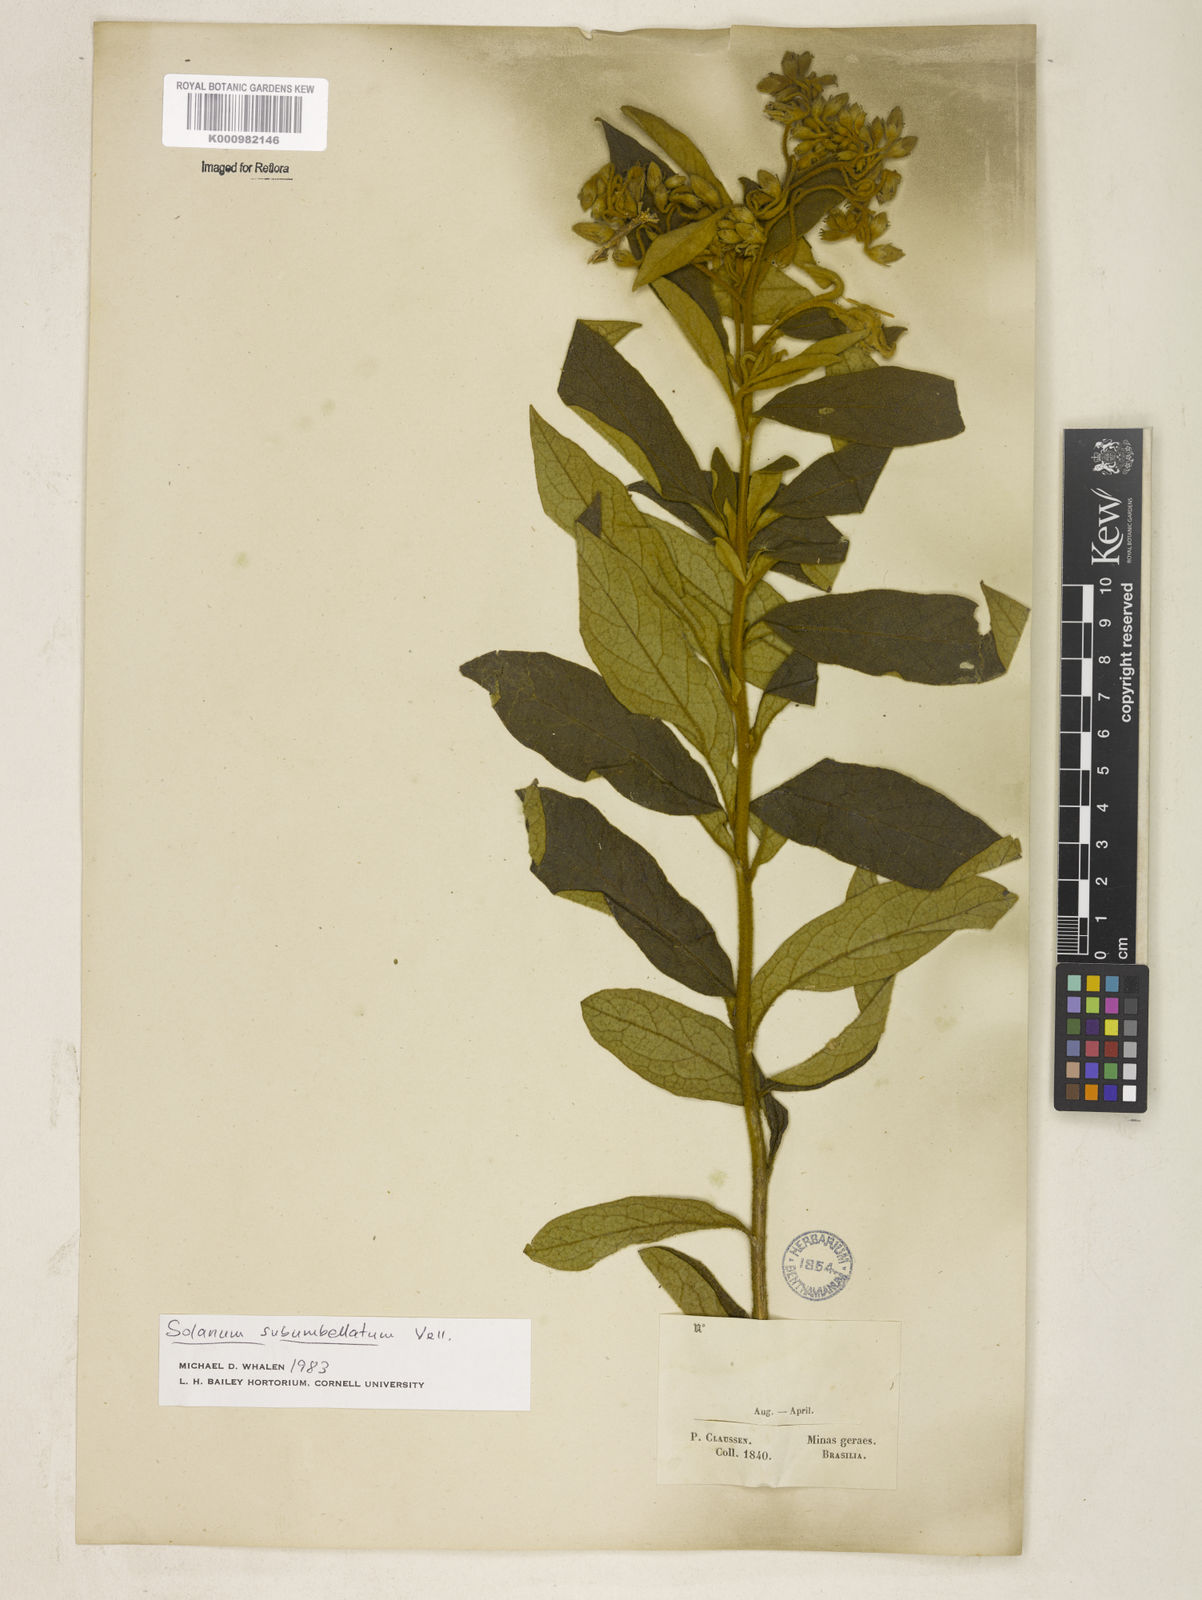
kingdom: Plantae
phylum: Tracheophyta
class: Magnoliopsida
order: Solanales
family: Solanaceae
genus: Solanum
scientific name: Solanum subumbellatum
